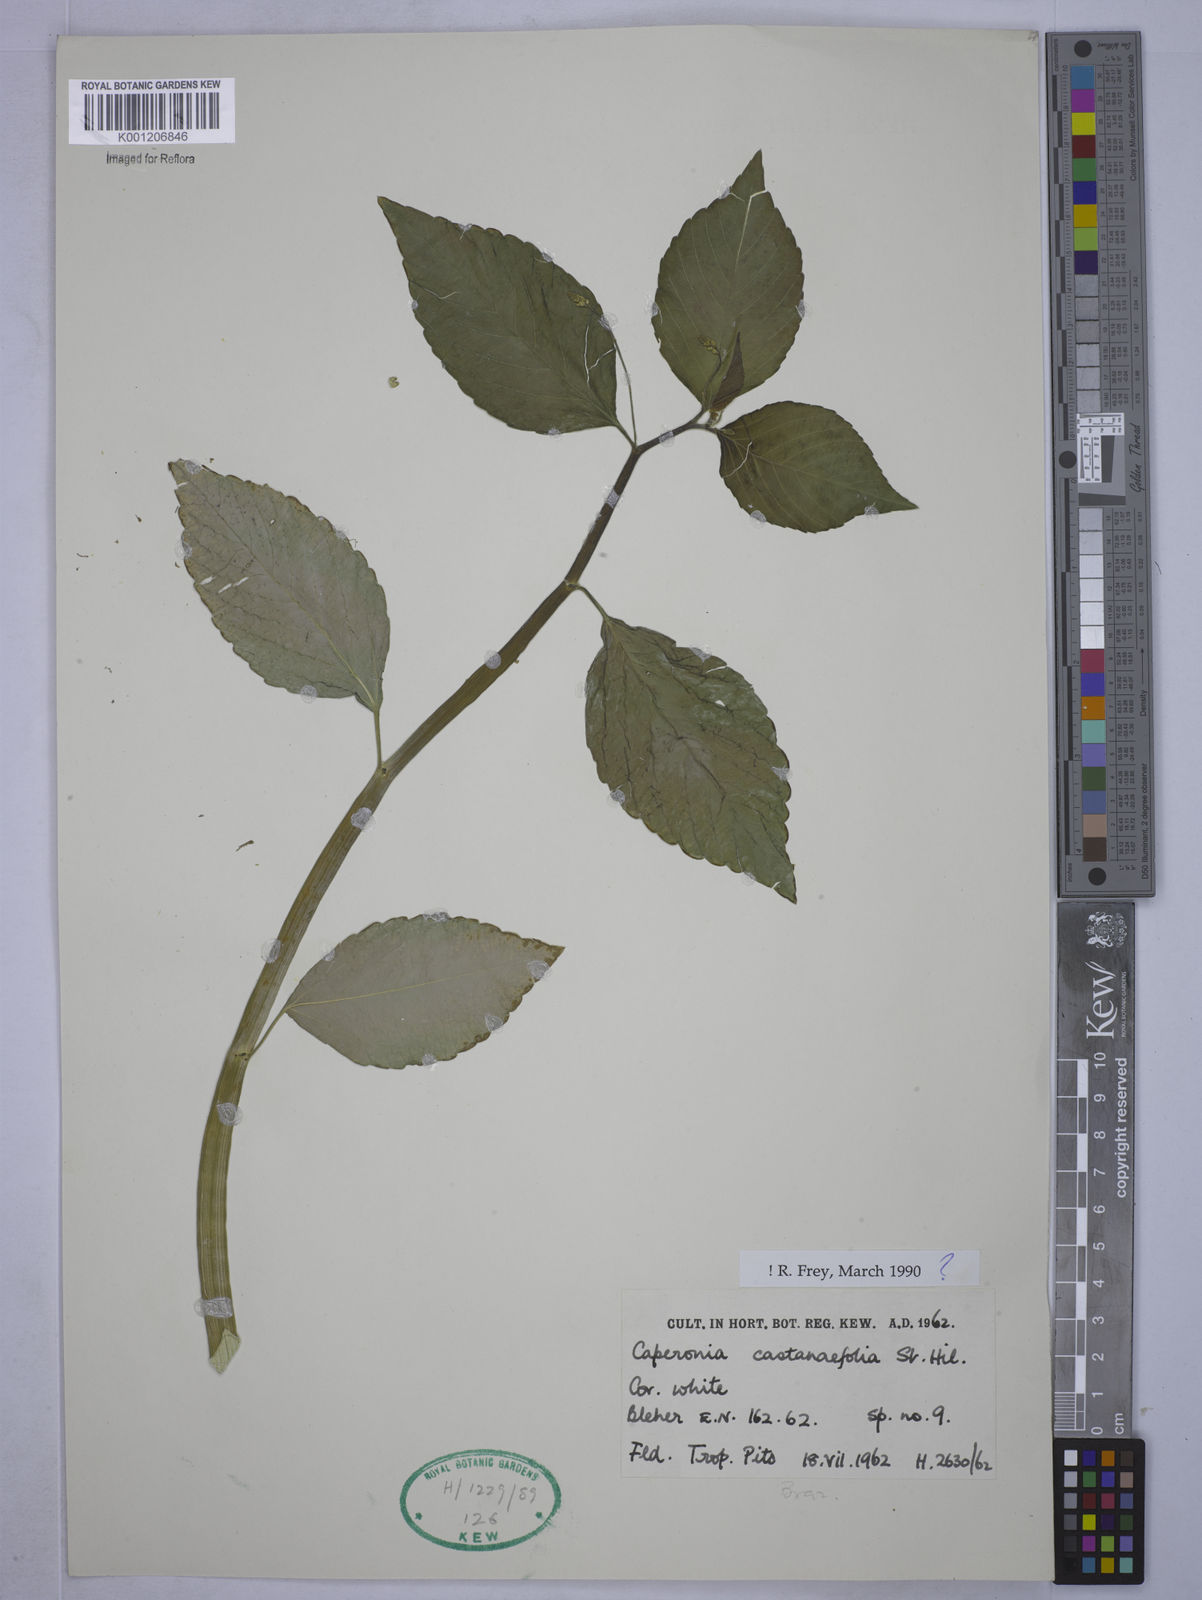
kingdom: Plantae
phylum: Tracheophyta
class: Magnoliopsida
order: Malpighiales
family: Euphorbiaceae
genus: Caperonia
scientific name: Caperonia castaneifolia
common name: Chestnutleaf false croton
